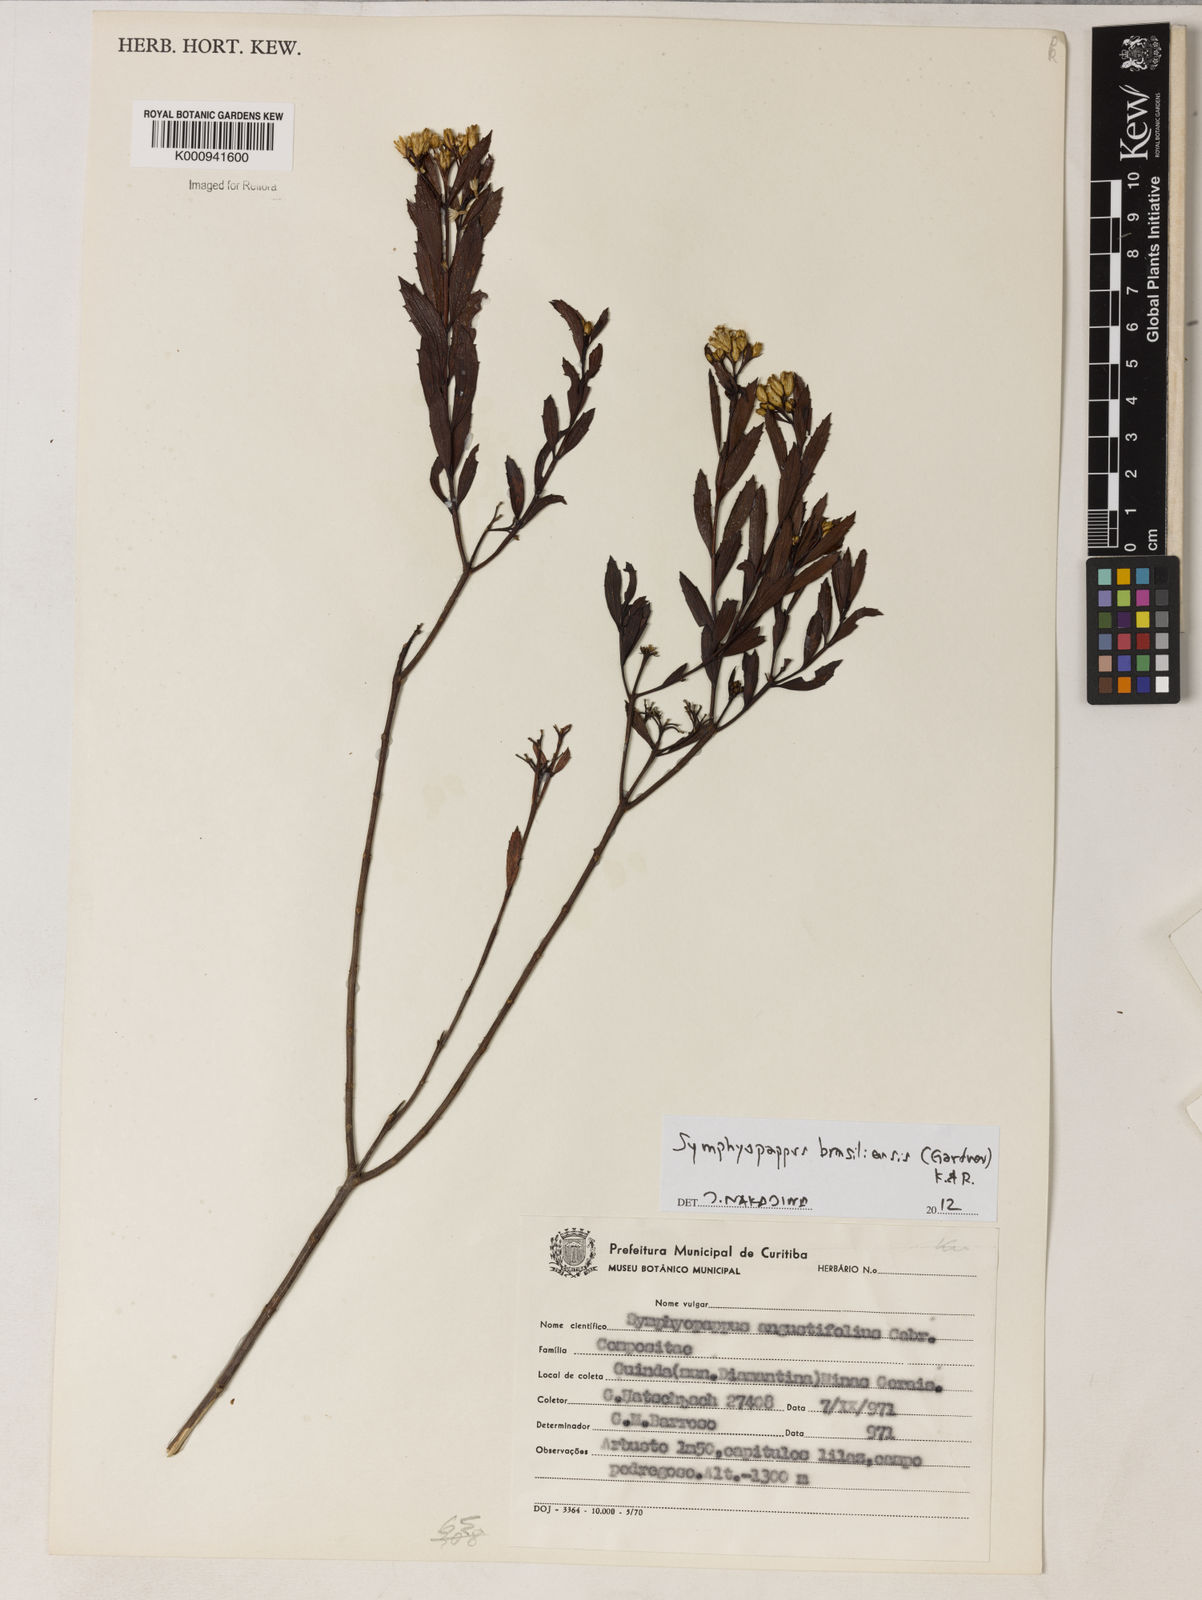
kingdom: Plantae
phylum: Tracheophyta
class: Magnoliopsida
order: Asterales
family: Asteraceae
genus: Symphyopappus
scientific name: Symphyopappus brasiliensis
